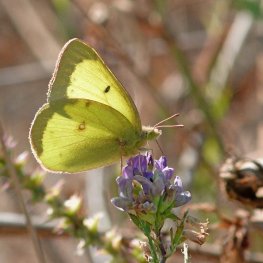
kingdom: Animalia
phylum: Arthropoda
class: Insecta
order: Lepidoptera
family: Pieridae
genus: Colias
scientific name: Colias philodice
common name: Clouded Sulphur
